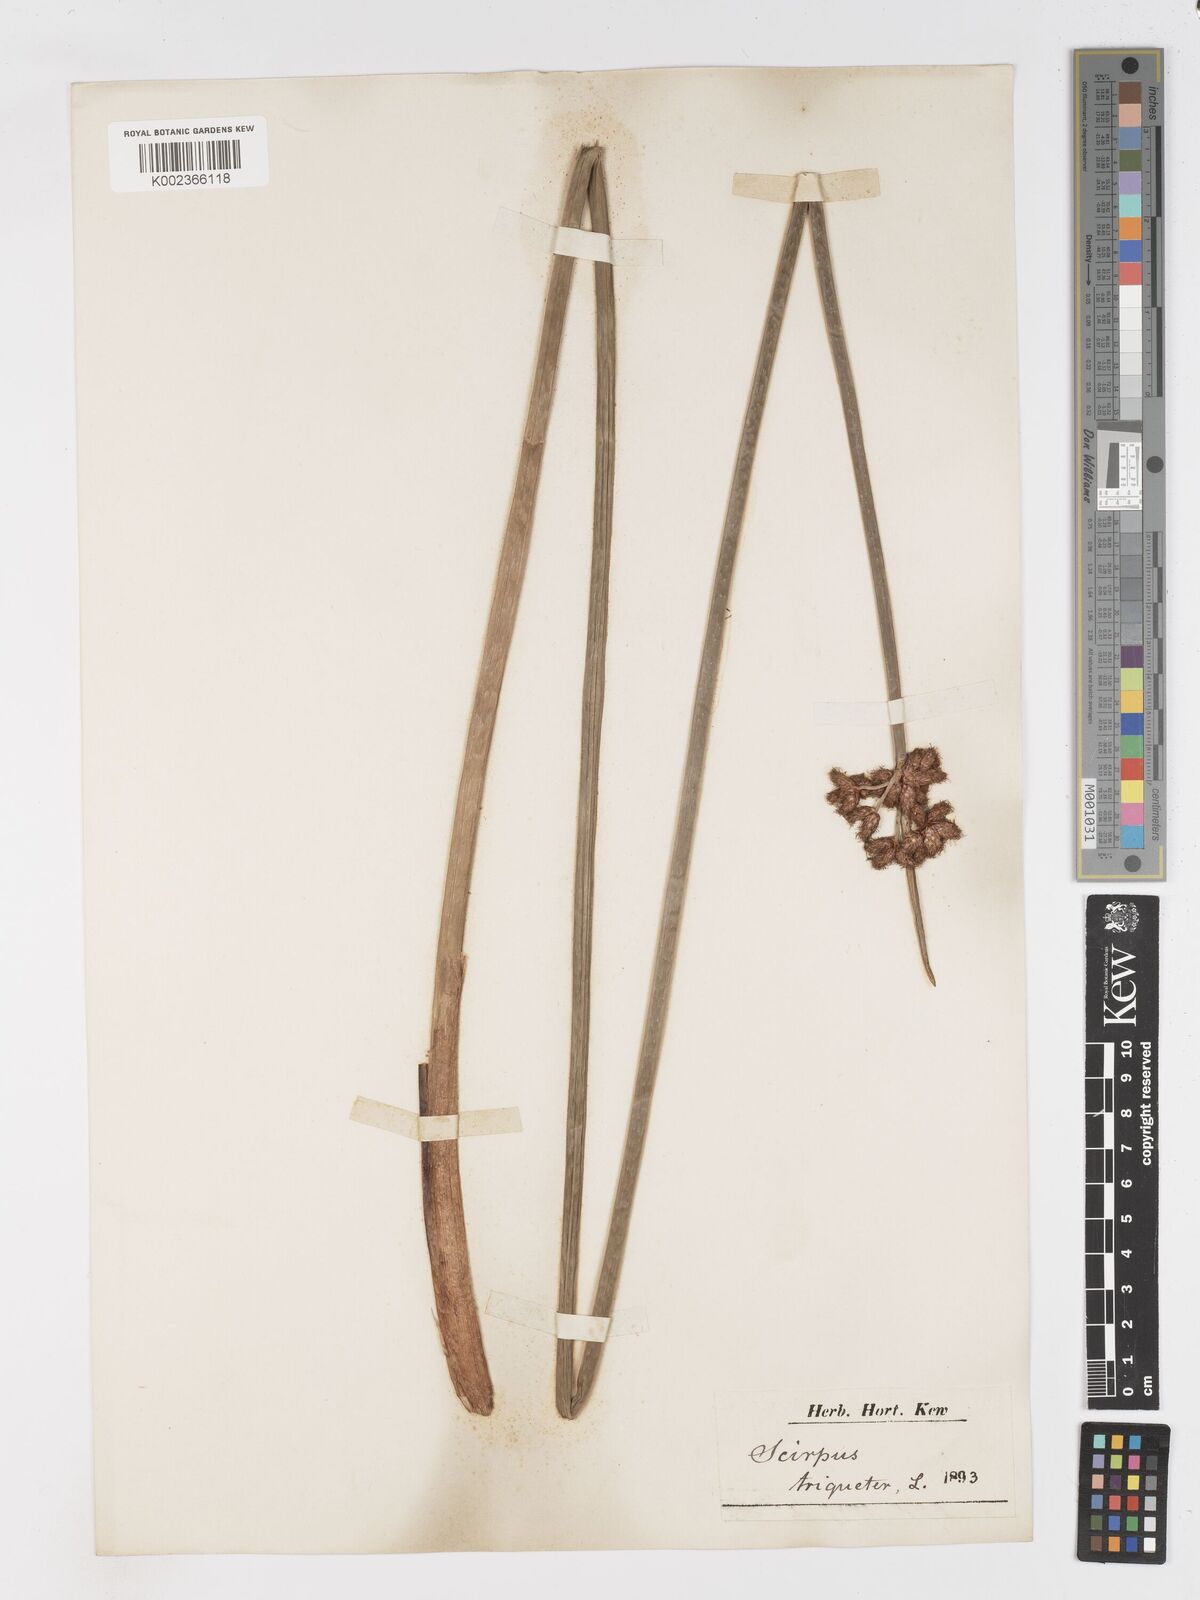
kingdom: Plantae
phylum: Tracheophyta
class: Liliopsida
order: Poales
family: Cyperaceae
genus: Schoenoplectus
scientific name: Schoenoplectus triqueter
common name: Triangular club-rush
